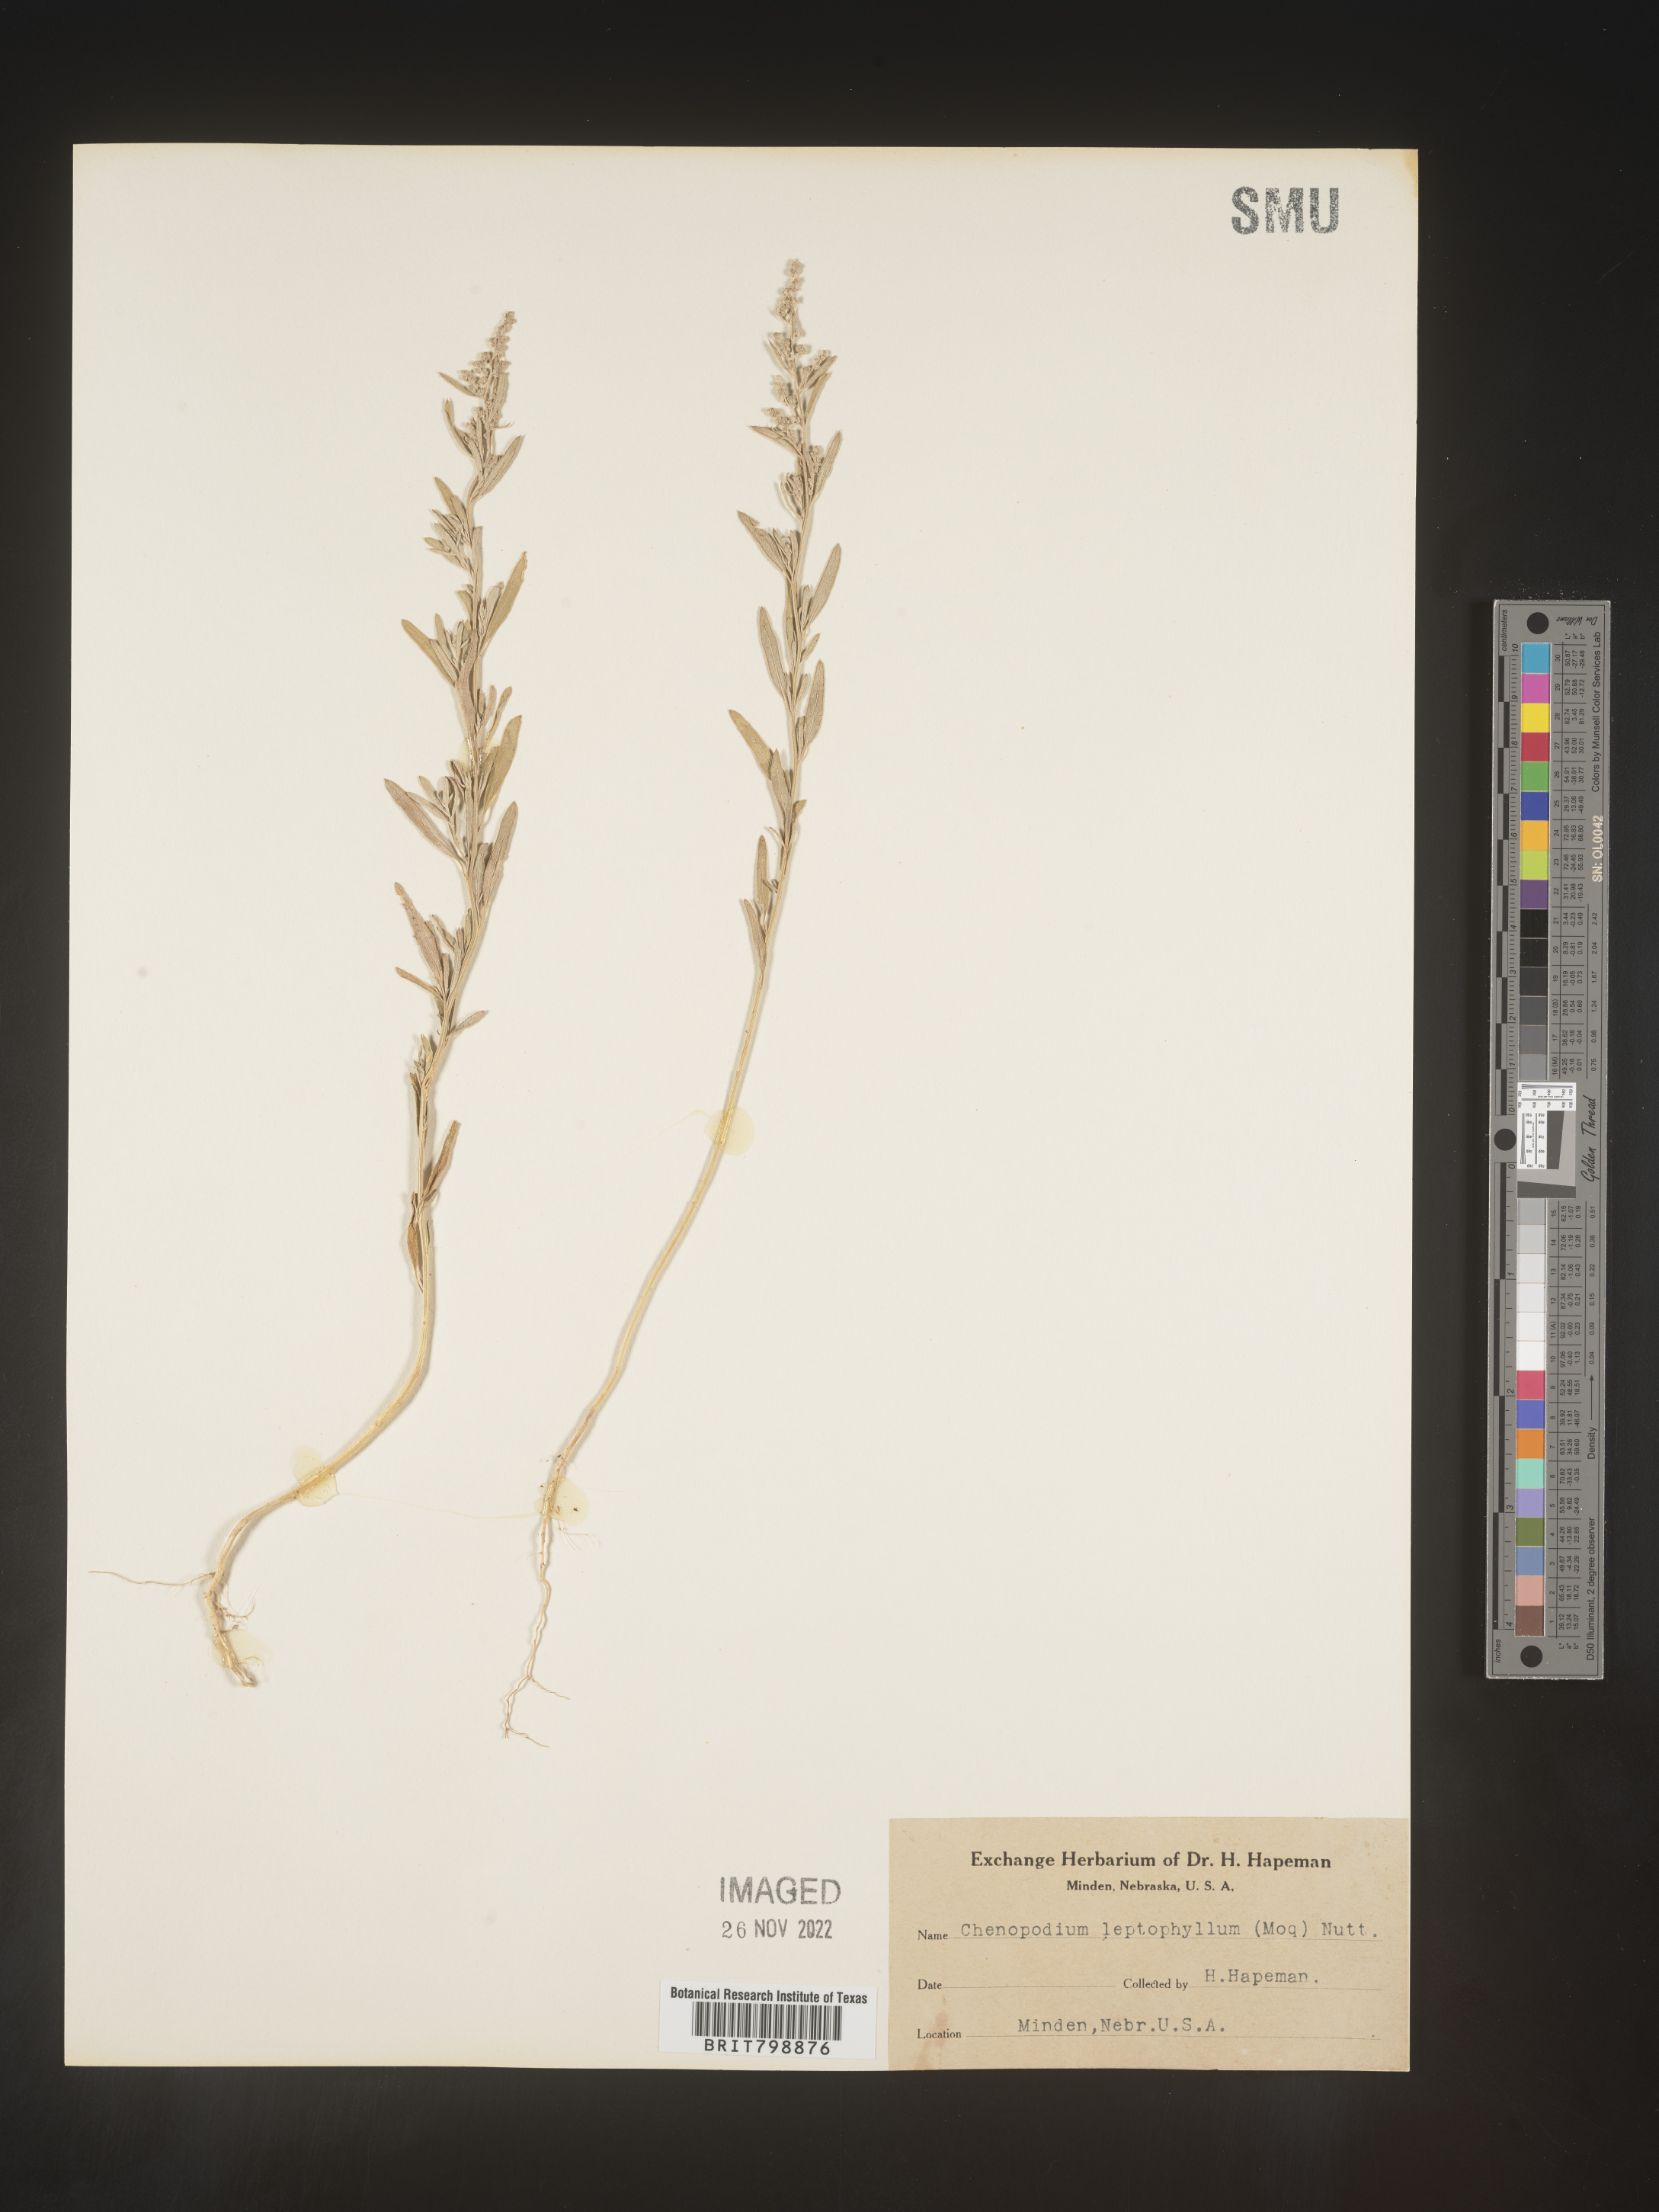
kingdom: Plantae
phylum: Tracheophyta
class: Magnoliopsida
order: Caryophyllales
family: Amaranthaceae
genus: Chenopodium
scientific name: Chenopodium leptophyllum
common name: Narrow-leaf goosefoot
